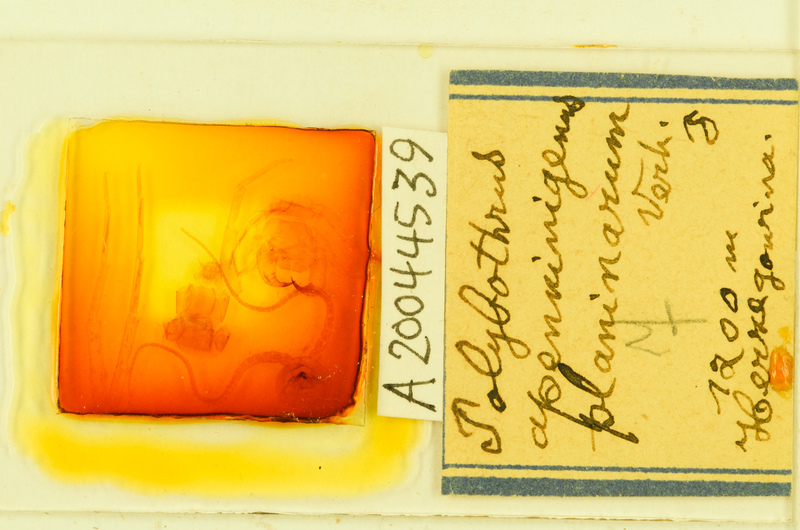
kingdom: Animalia
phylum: Arthropoda
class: Chilopoda
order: Lithobiomorpha
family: Lithobiidae
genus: Polybothrus
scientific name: Polybothrus
